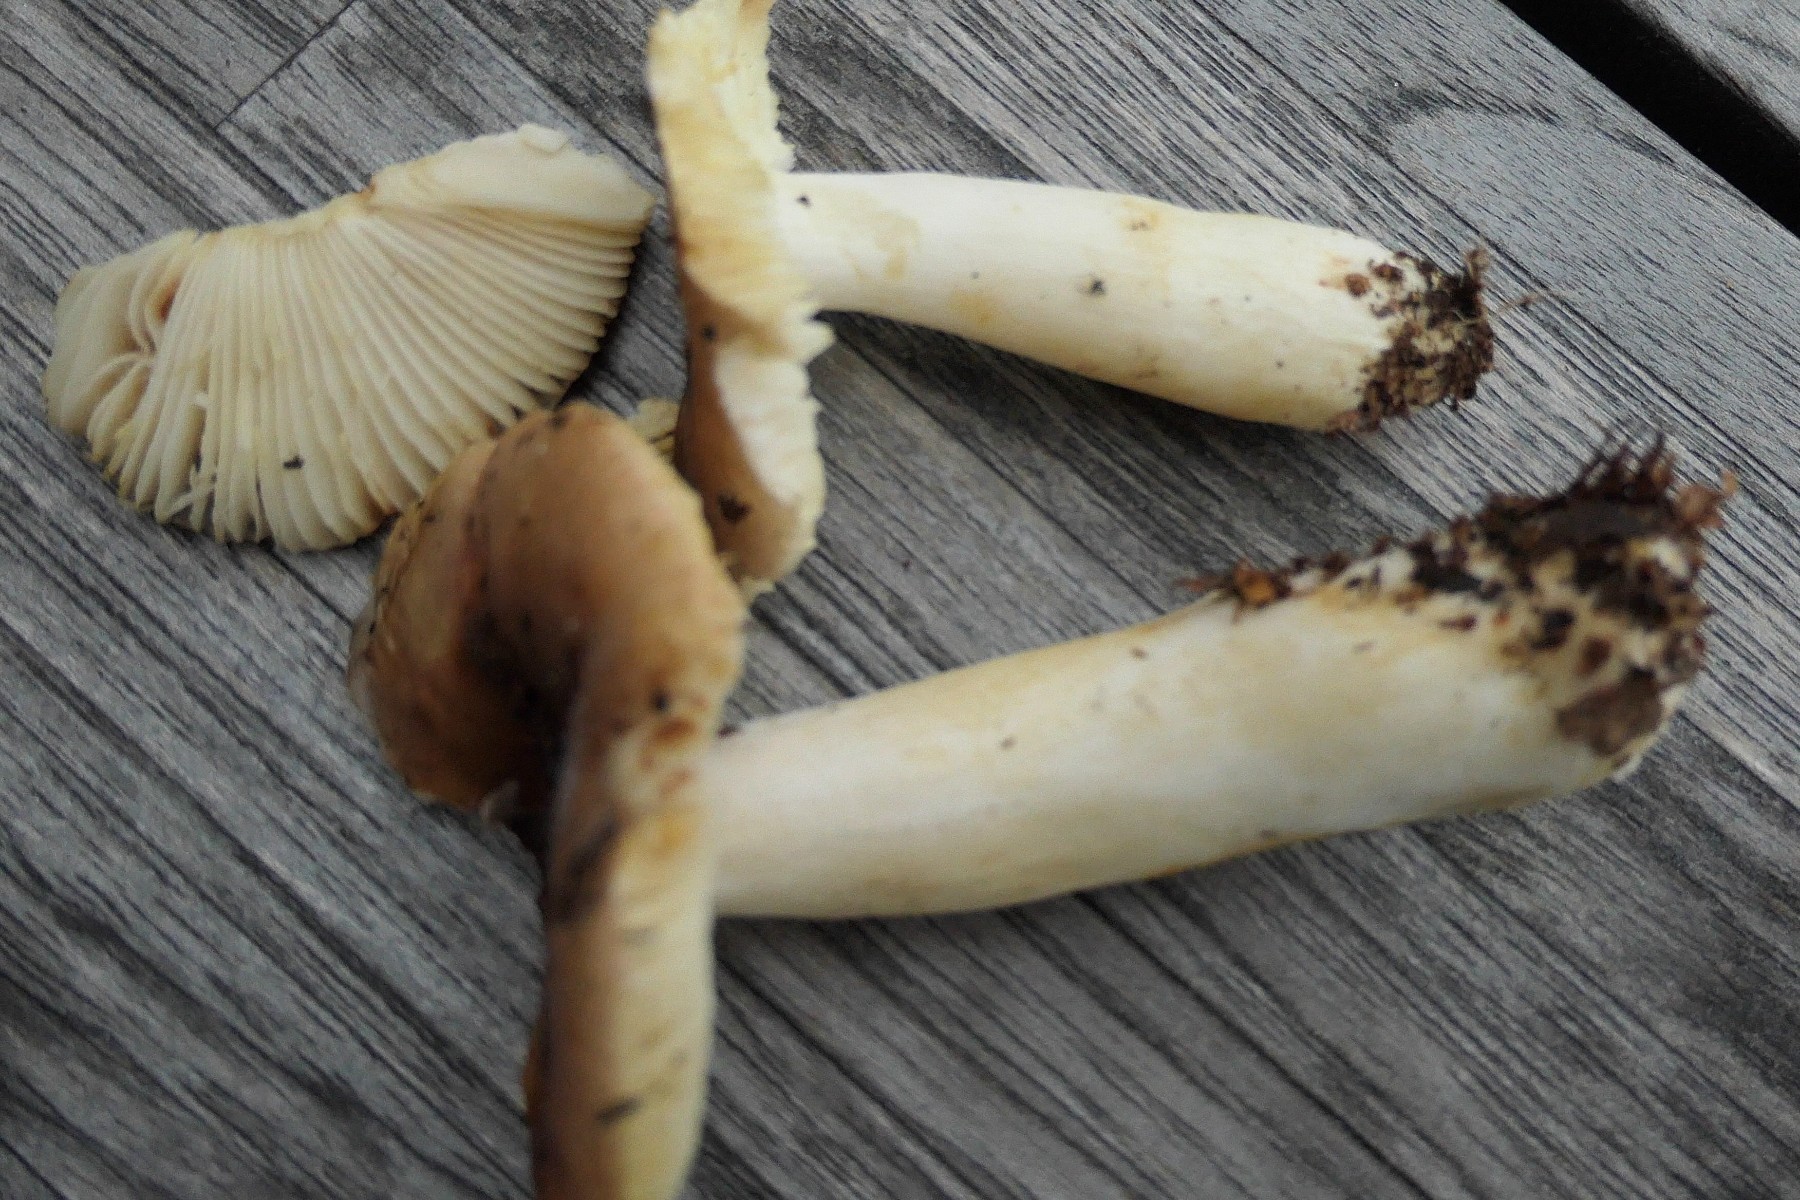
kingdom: Fungi
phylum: Basidiomycota
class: Agaricomycetes
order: Russulales
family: Russulaceae
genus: Russula
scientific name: Russula puellaris
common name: gulstokket skørhat
